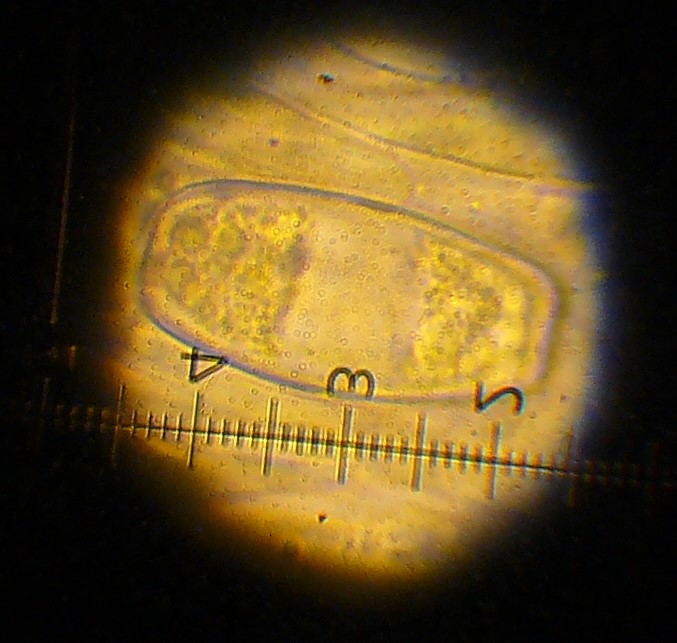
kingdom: Fungi
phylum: Ascomycota
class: Pezizomycetes
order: Pezizales
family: Sarcoscyphaceae
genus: Sarcoscypha
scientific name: Sarcoscypha austriaca
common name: krølhåret pragtbæger
